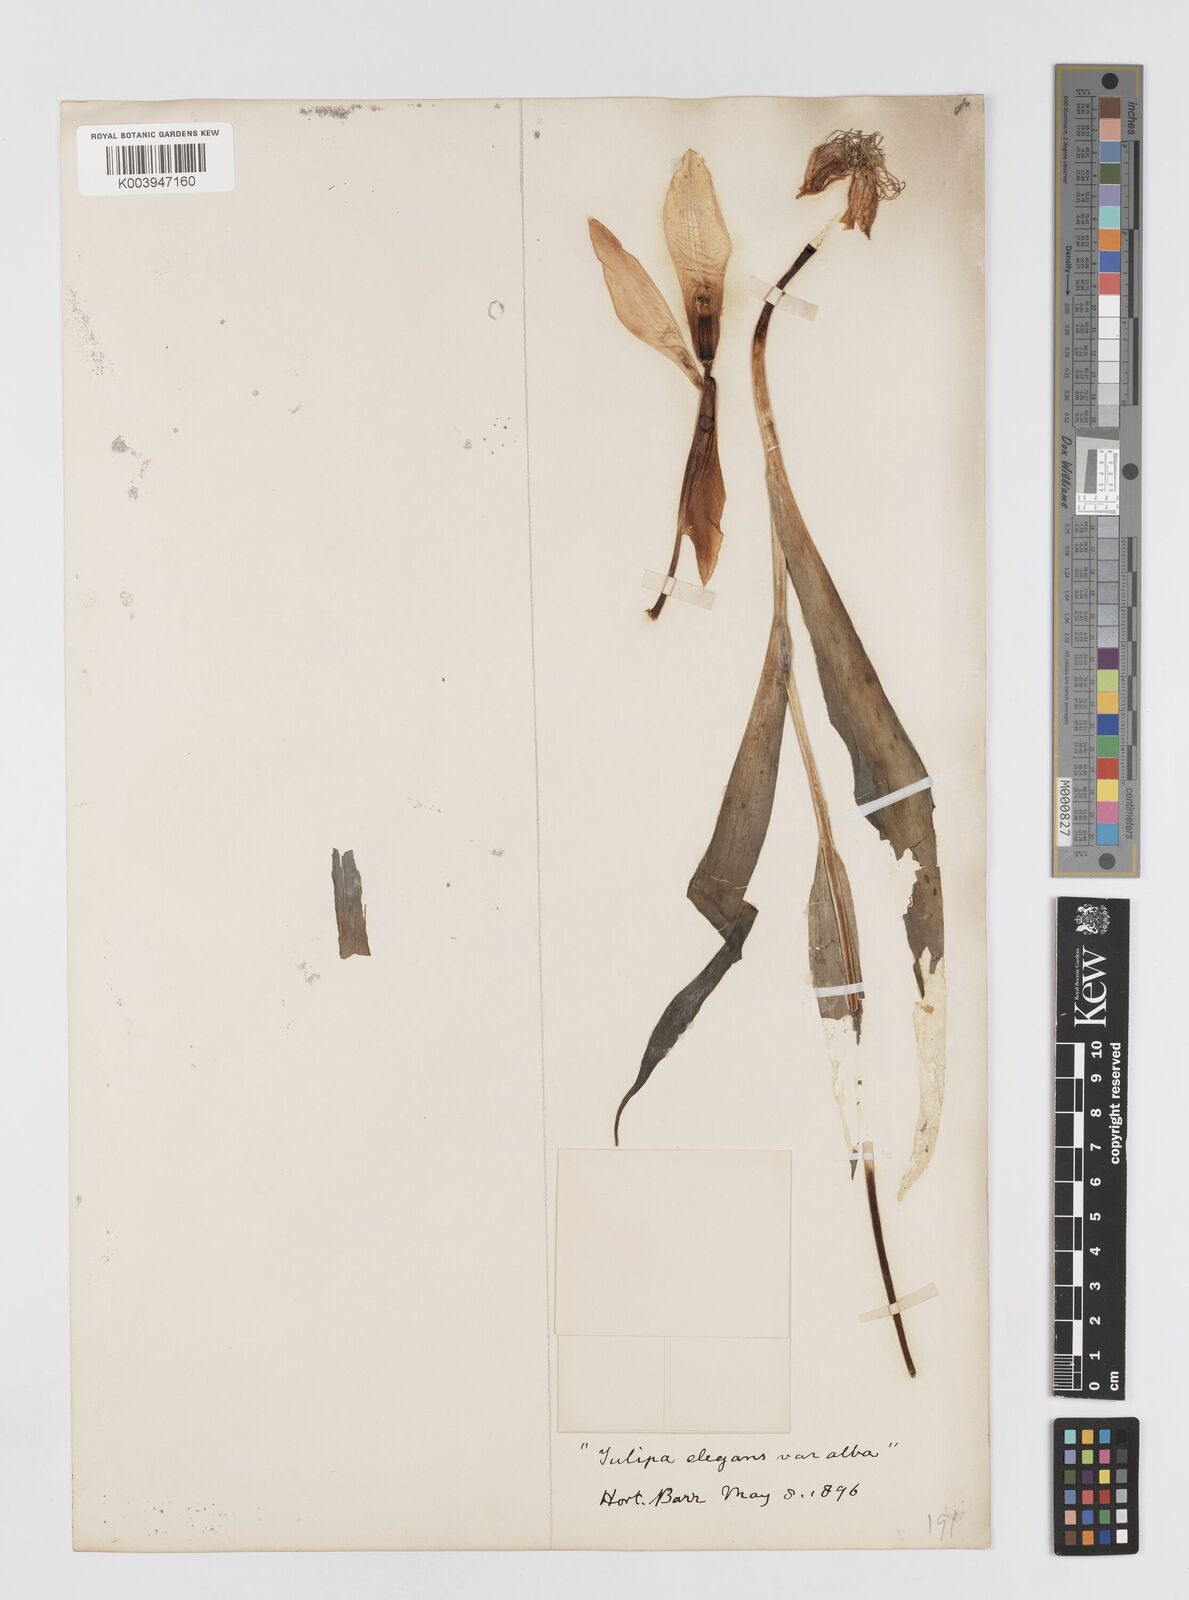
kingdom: Plantae
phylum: Tracheophyta
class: Liliopsida
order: Liliales
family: Liliaceae
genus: Tulipa
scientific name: Tulipa gesneriana
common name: Garden tulip
